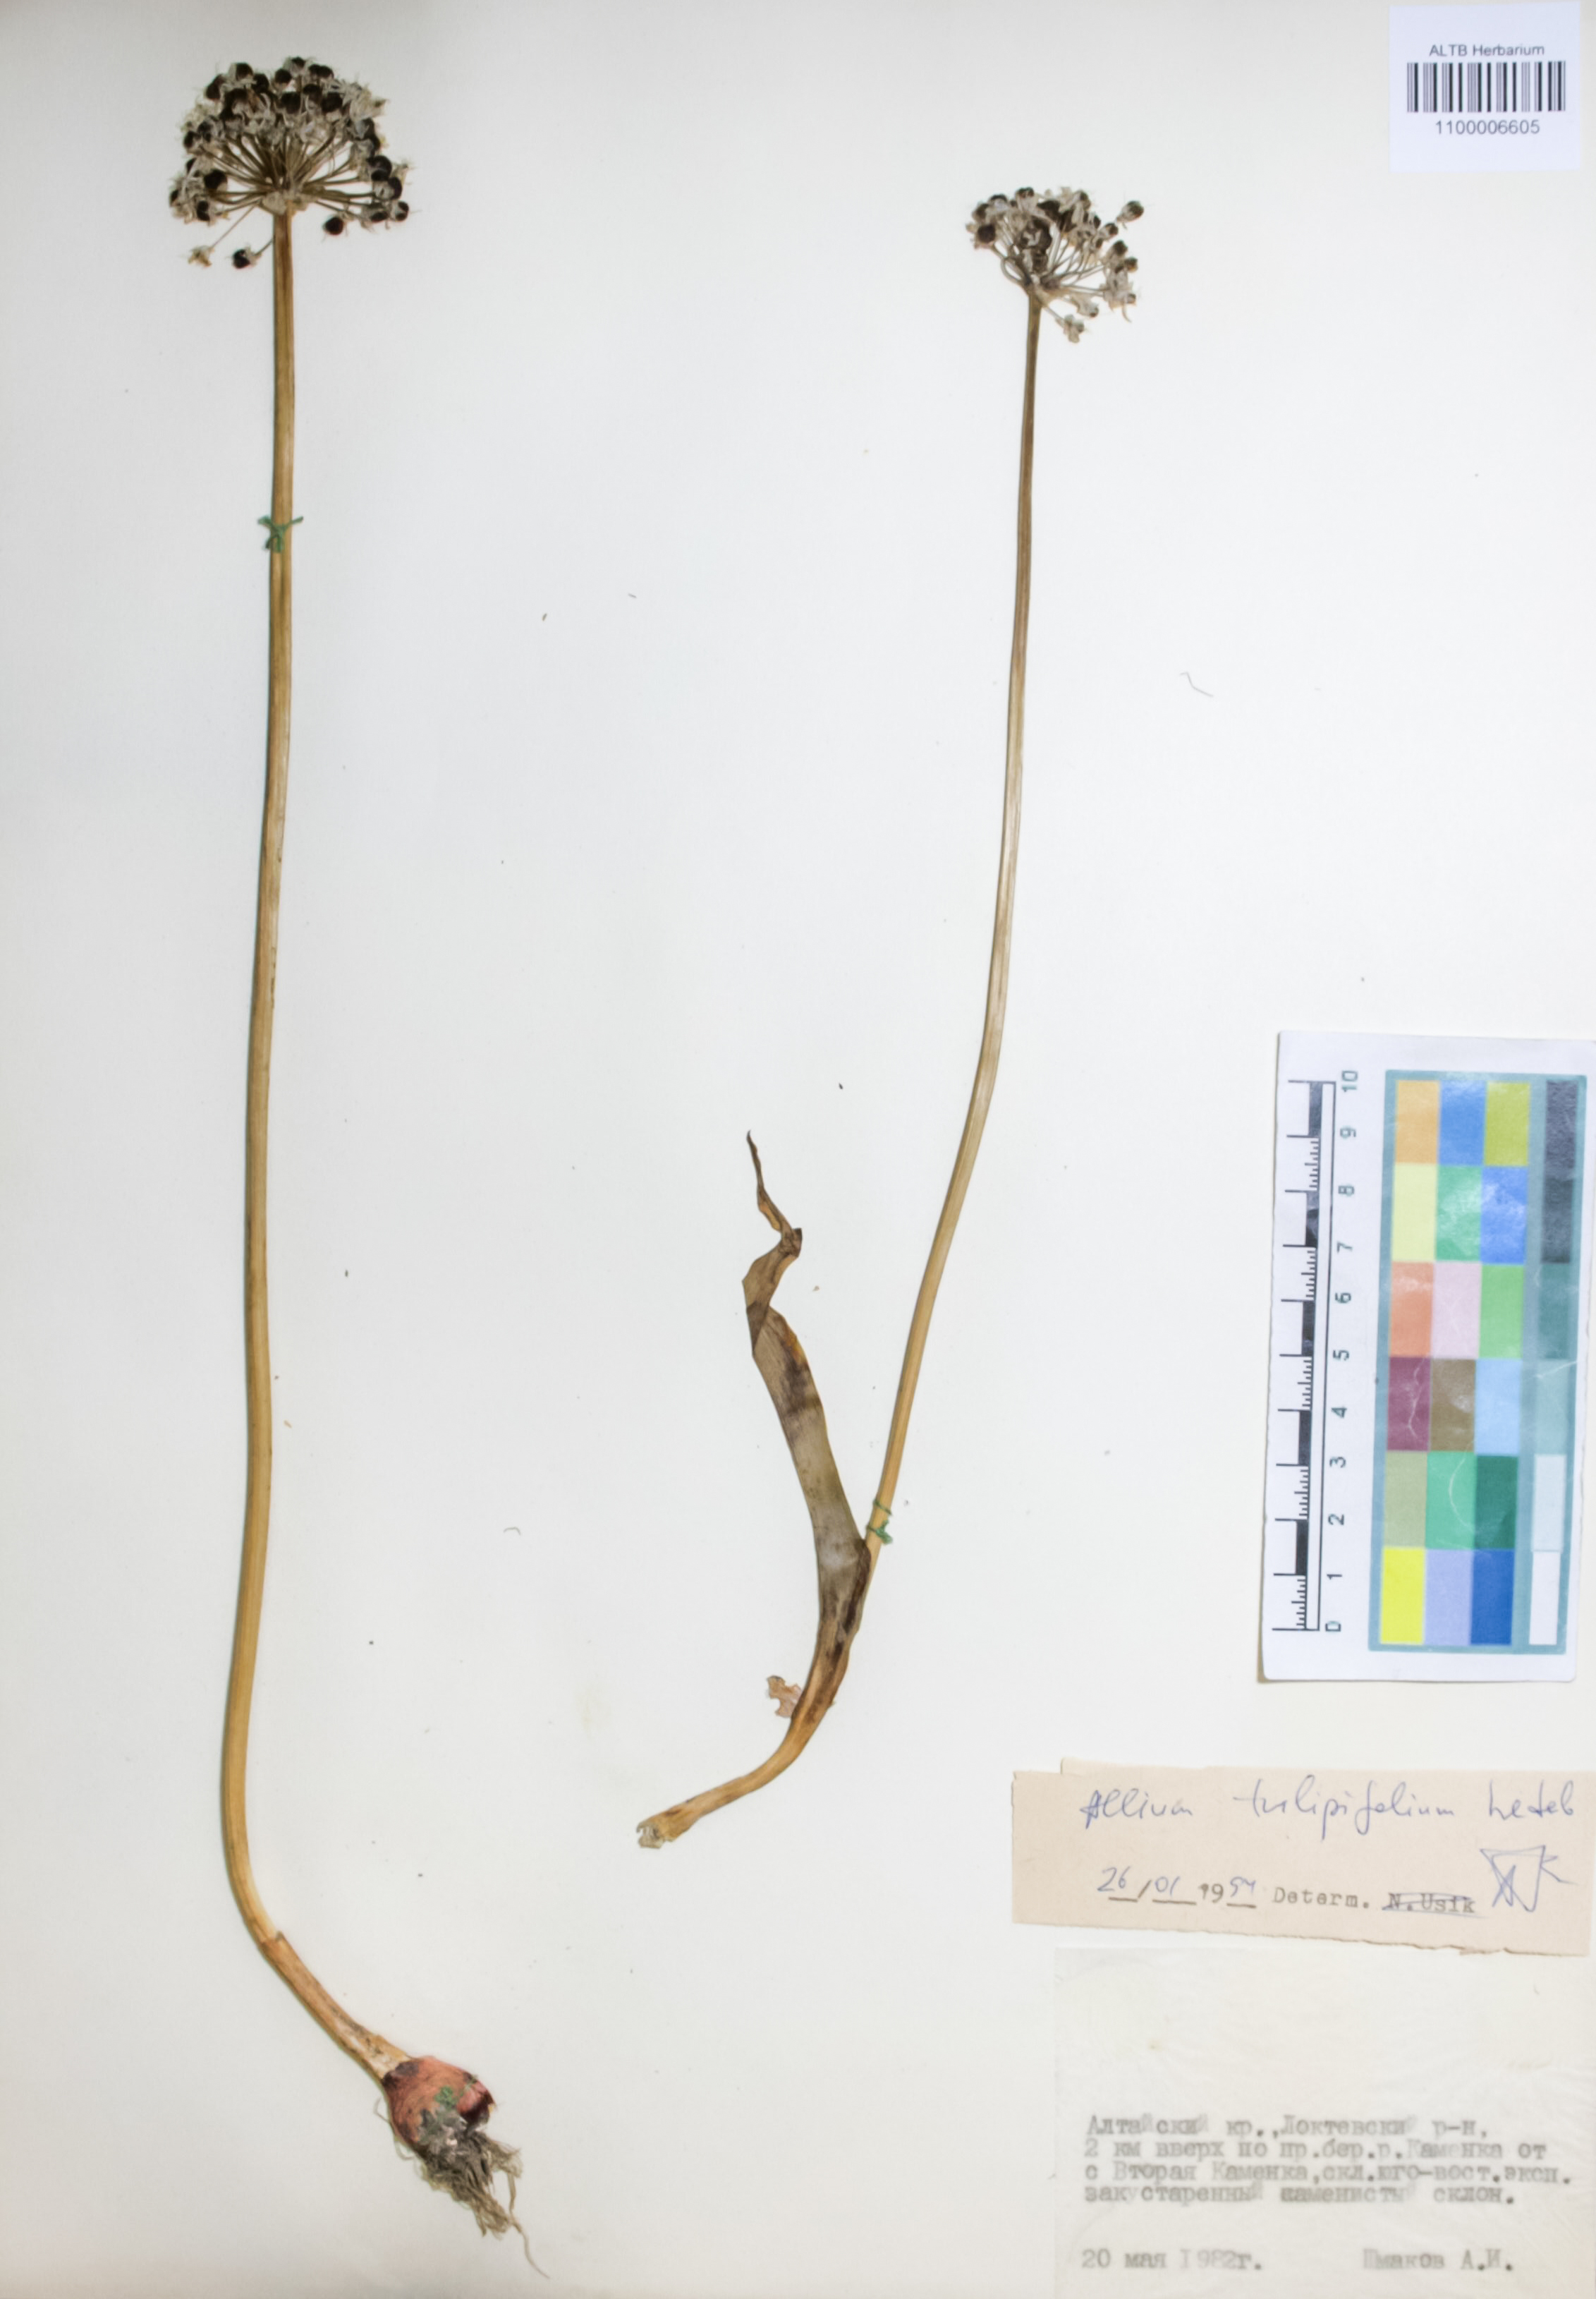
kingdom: Plantae
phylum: Tracheophyta
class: Liliopsida
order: Asparagales
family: Amaryllidaceae
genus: Allium
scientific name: Allium tulipifolium
